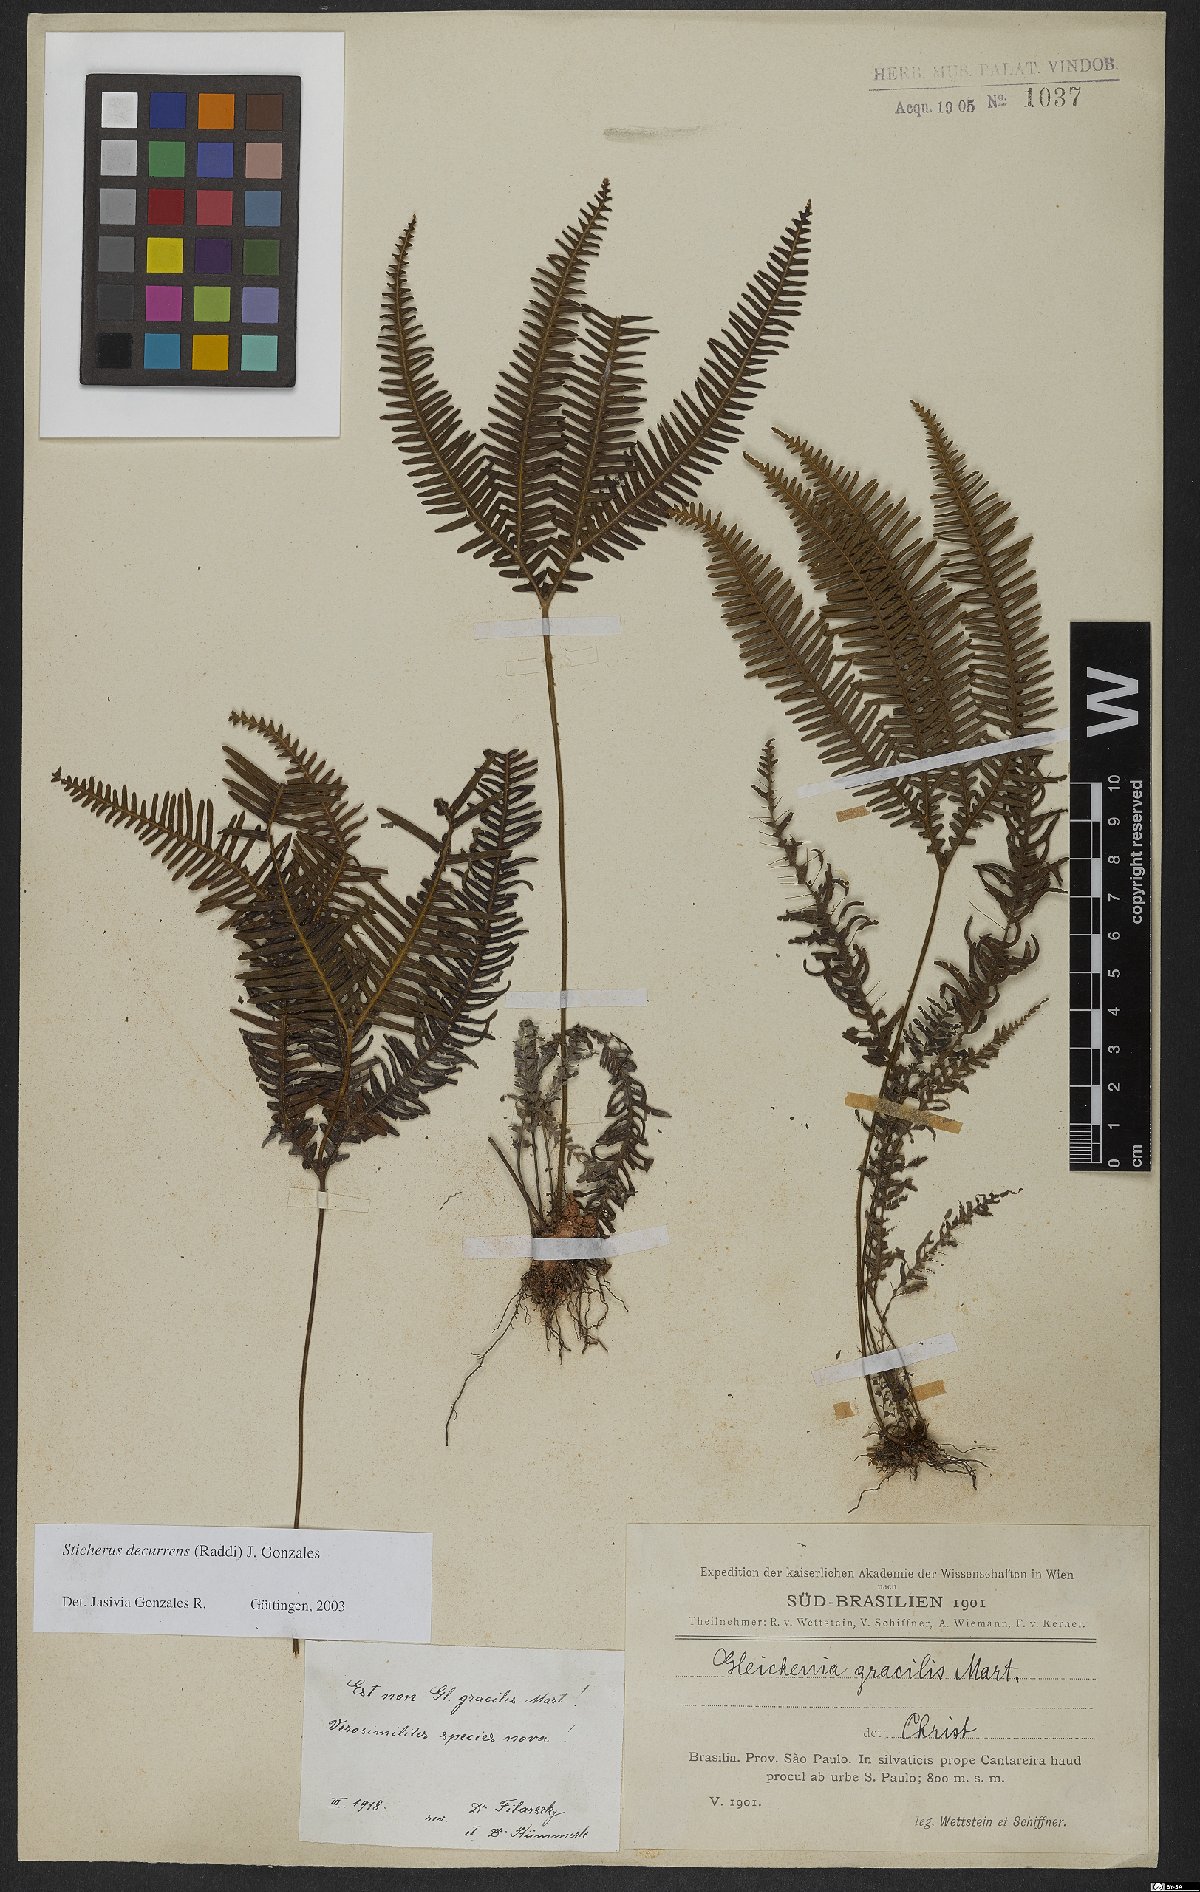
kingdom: Plantae
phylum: Tracheophyta
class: Polypodiopsida
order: Gleicheniales
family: Gleicheniaceae
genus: Sticherus
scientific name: Sticherus decurrens
